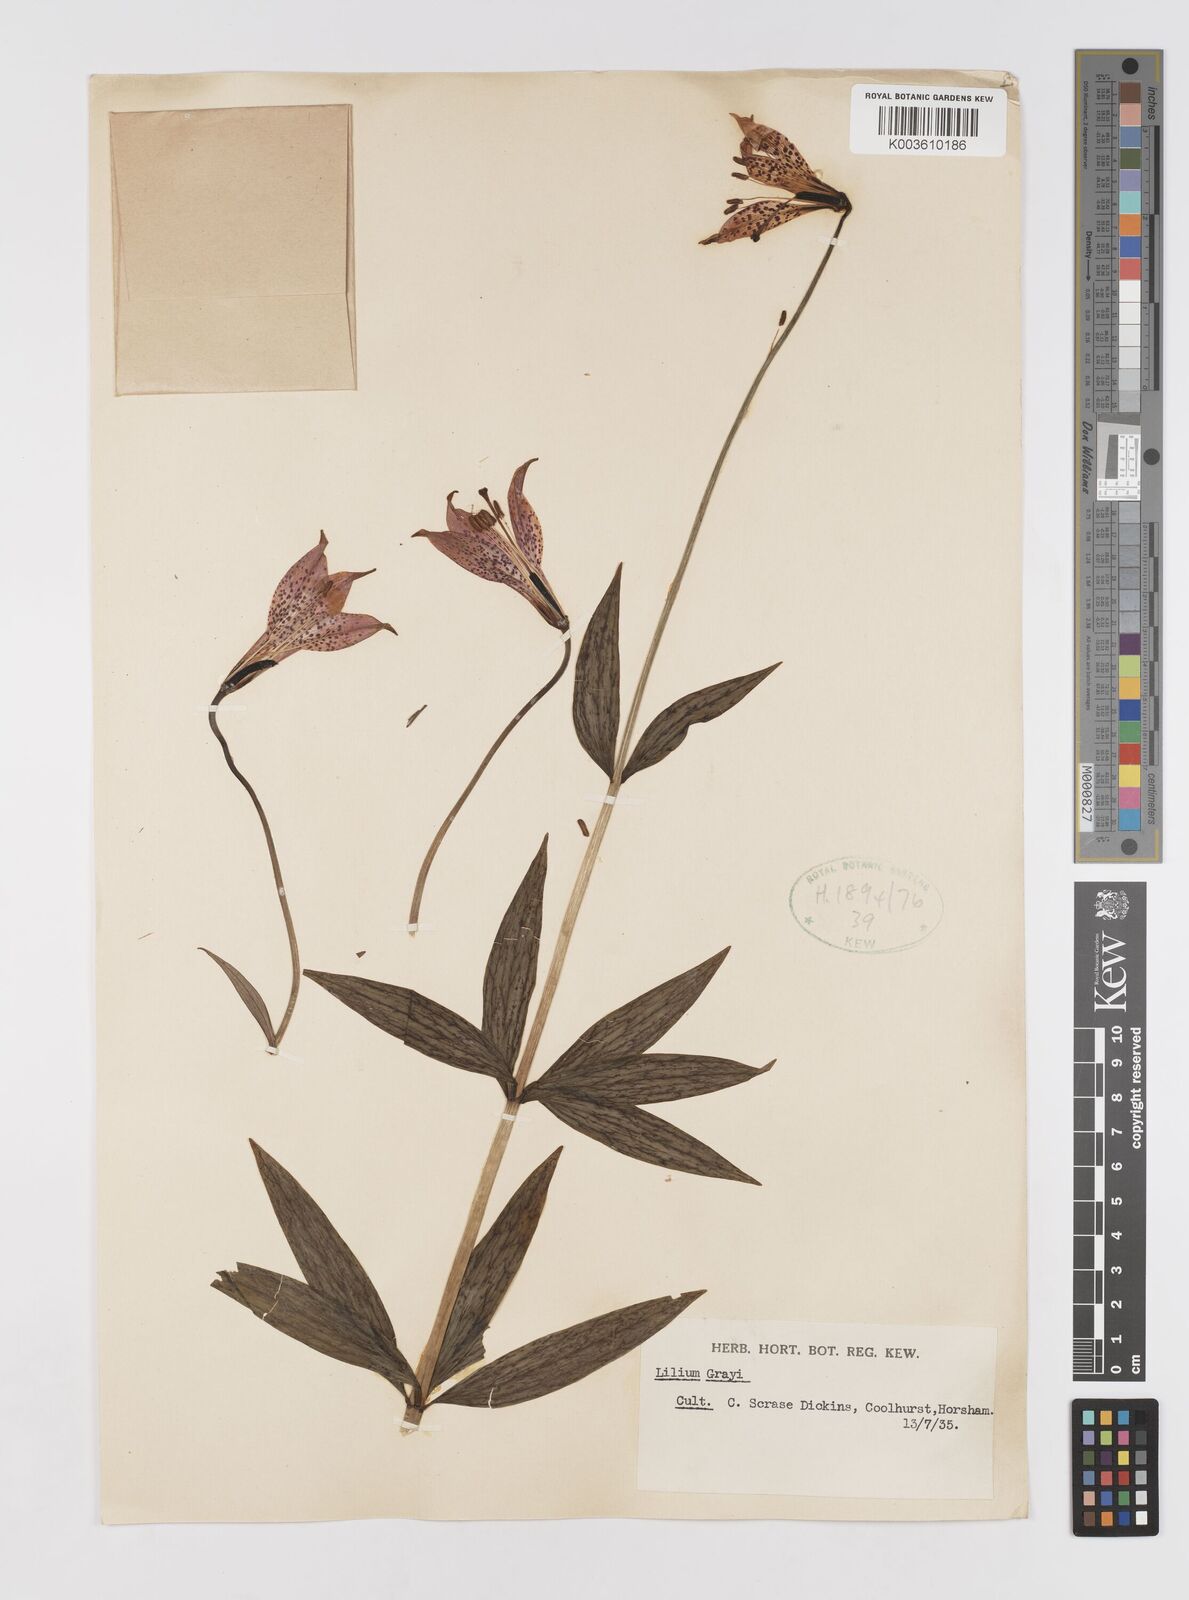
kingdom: Plantae
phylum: Tracheophyta
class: Liliopsida
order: Liliales
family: Liliaceae
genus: Lilium
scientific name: Lilium grayi
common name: Gray's lily
